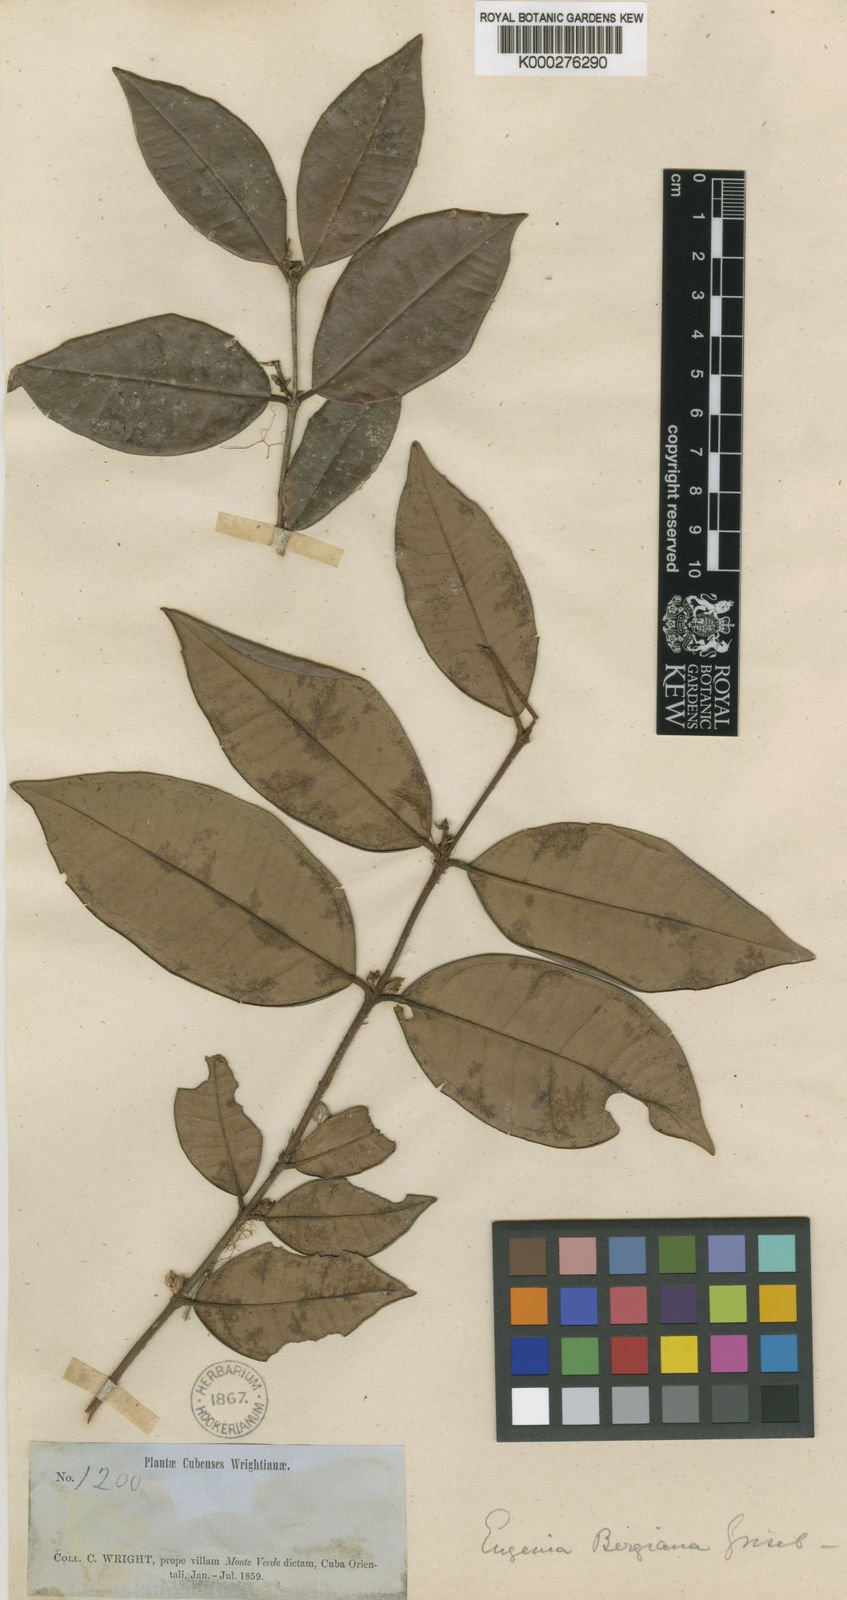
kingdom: Plantae
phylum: Tracheophyta
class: Magnoliopsida
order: Myrtales
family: Myrtaceae
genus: Eugenia
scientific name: Eugenia lineata
